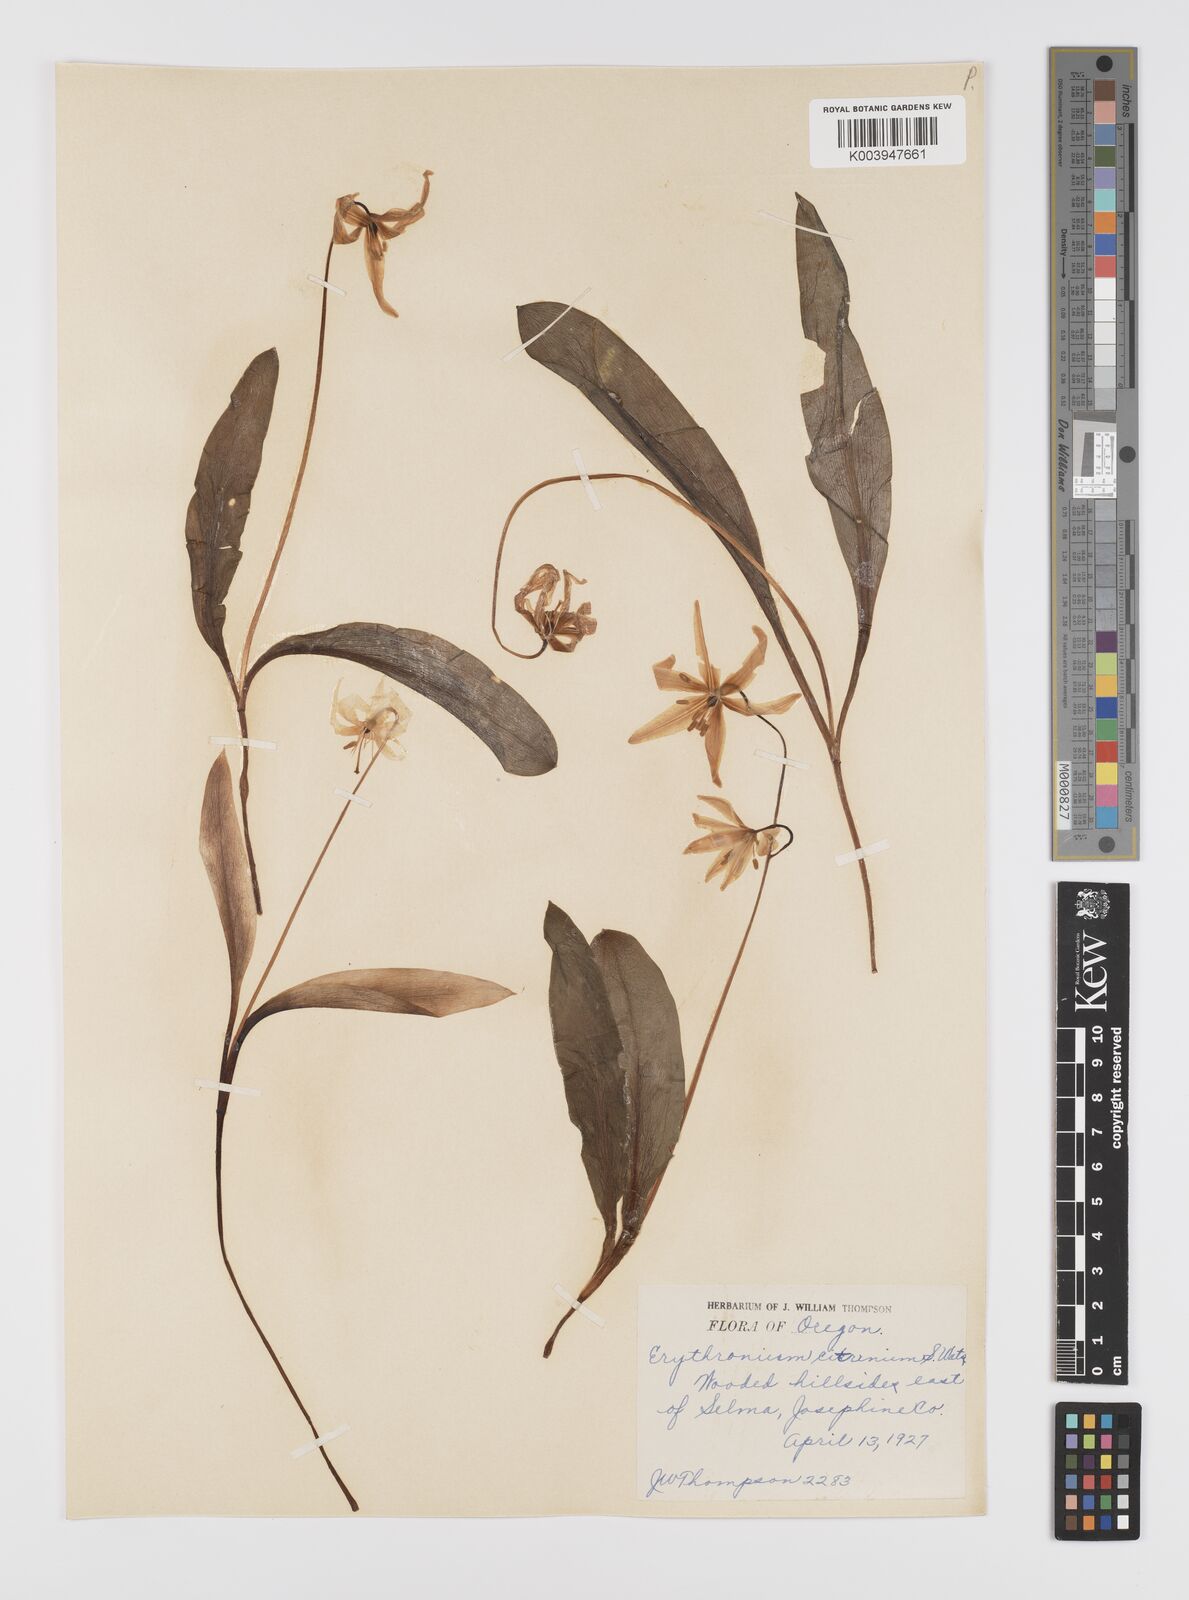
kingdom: Plantae
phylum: Tracheophyta
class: Liliopsida
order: Liliales
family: Liliaceae
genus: Erythronium
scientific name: Erythronium citrinum
